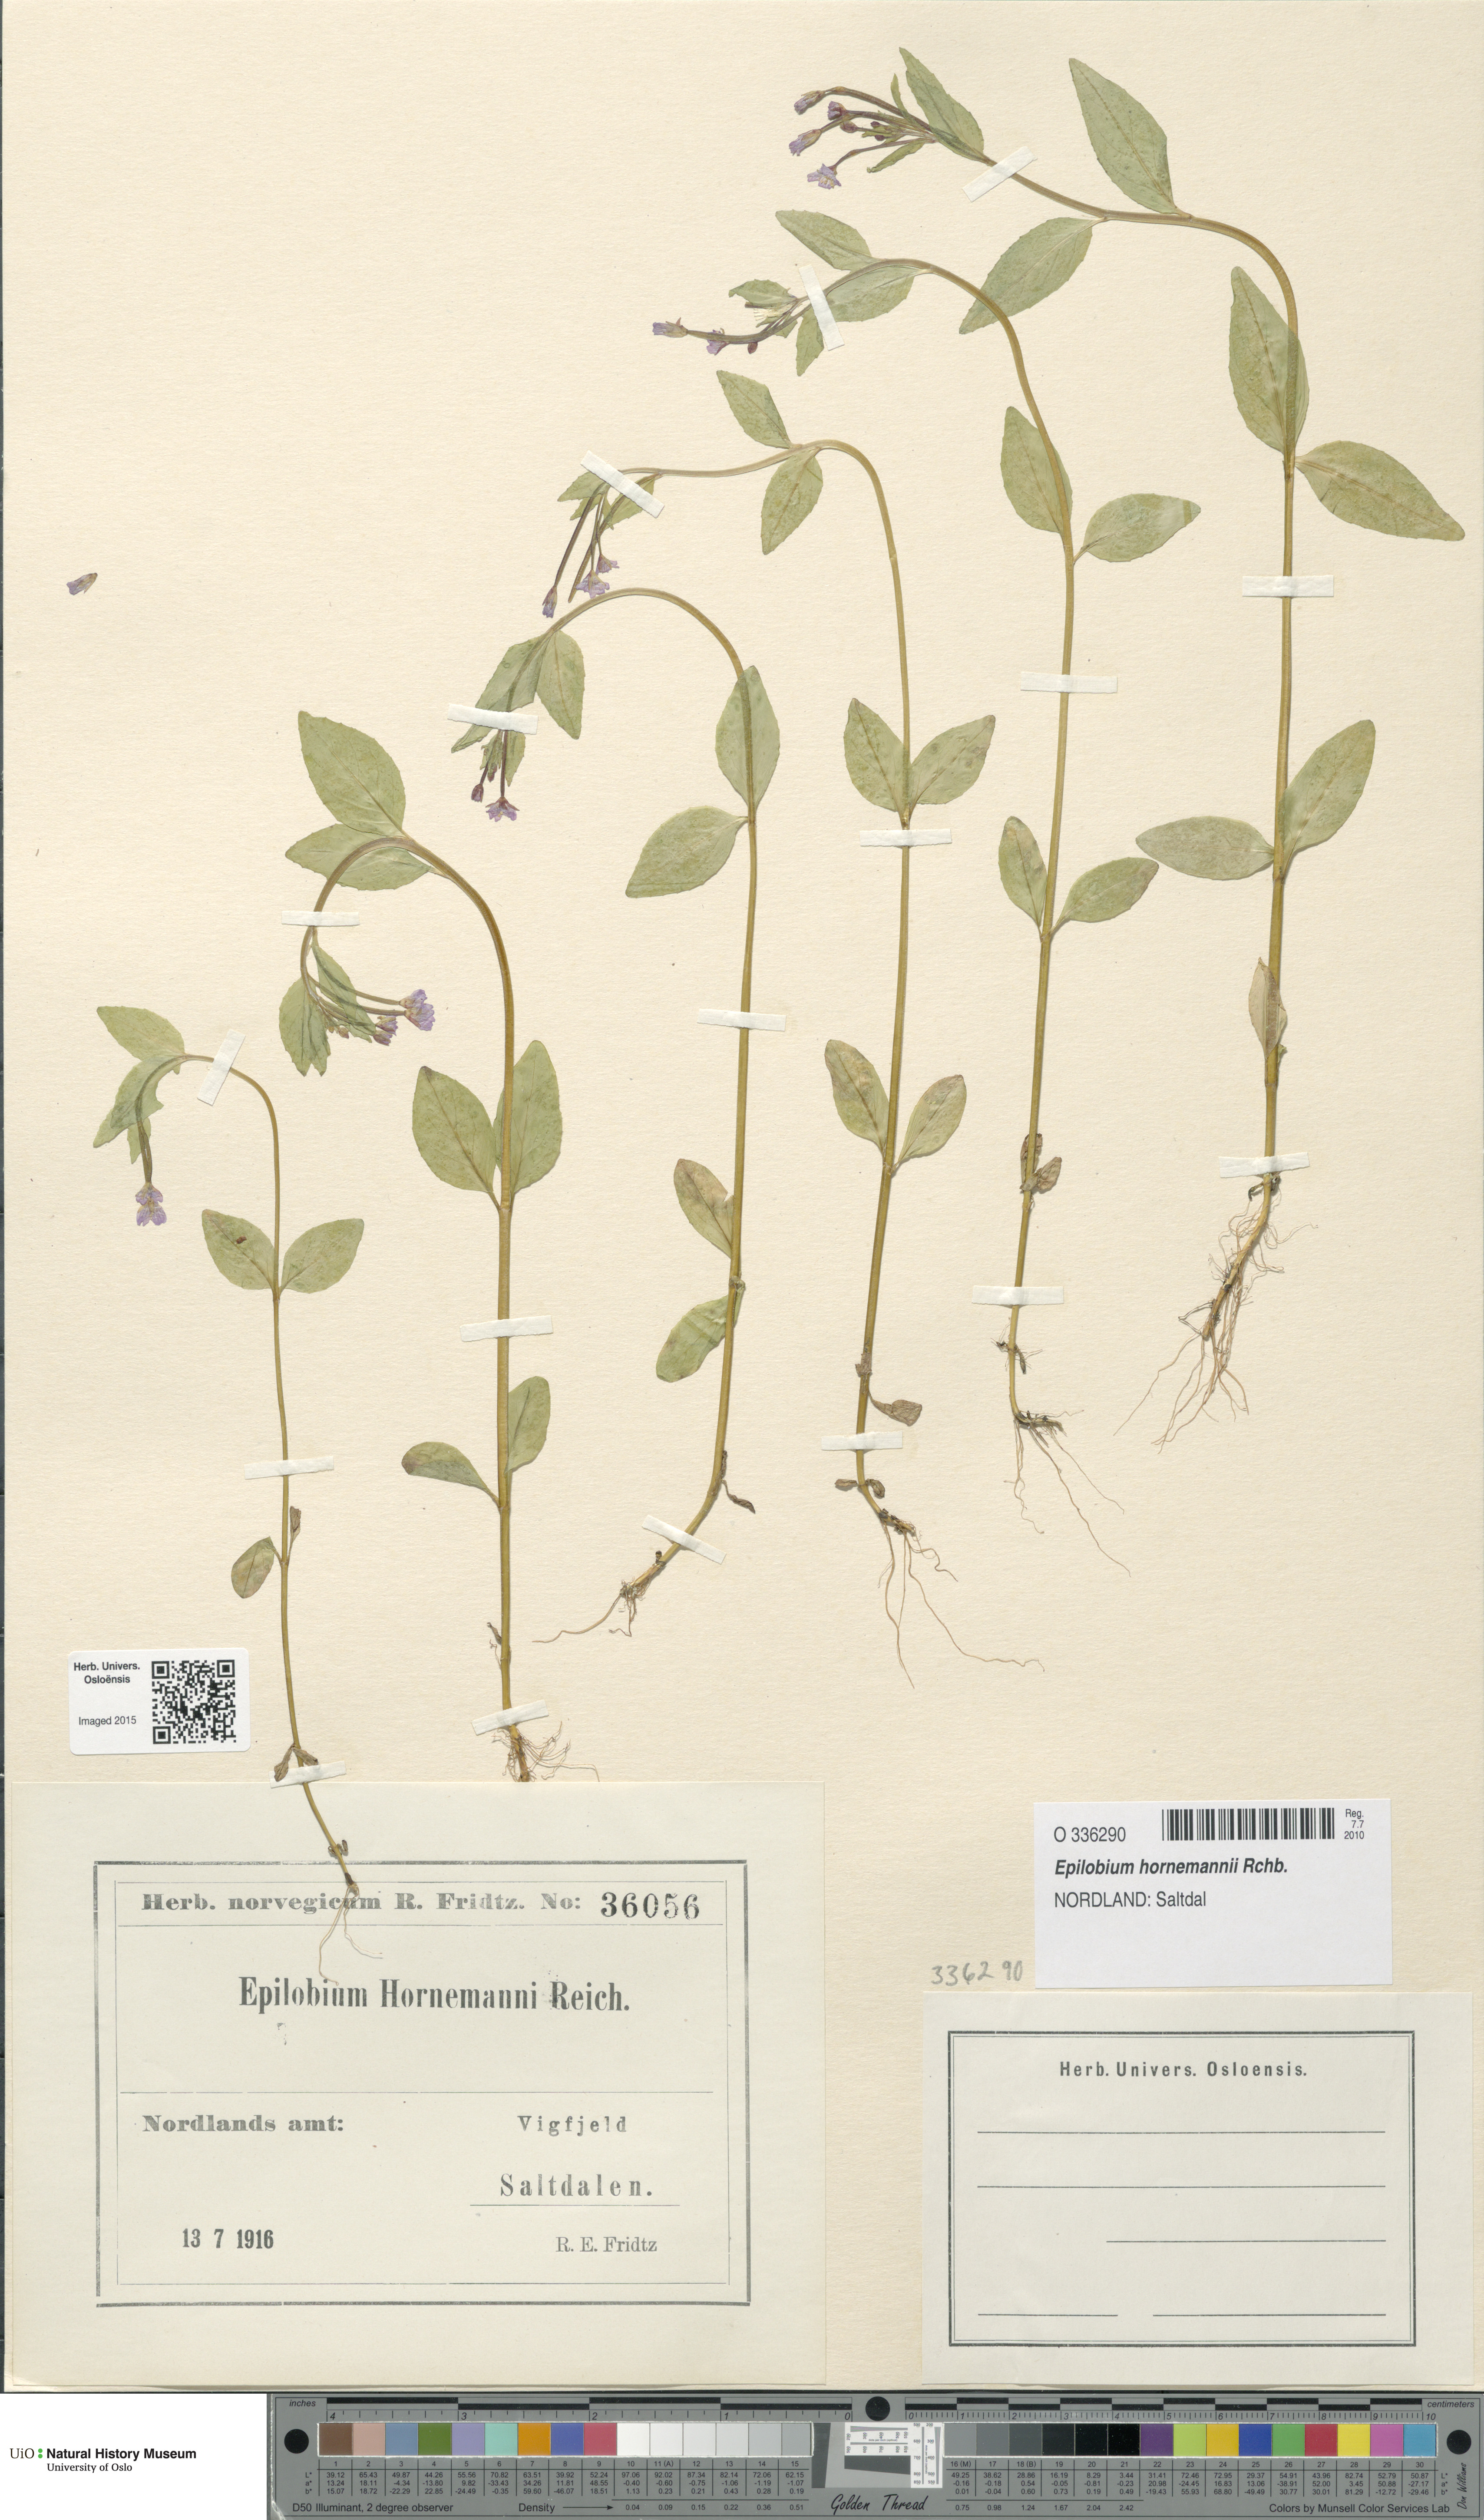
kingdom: Plantae
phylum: Tracheophyta
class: Magnoliopsida
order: Myrtales
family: Onagraceae
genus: Epilobium
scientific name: Epilobium hornemannii
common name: Hornemann's willowherb
